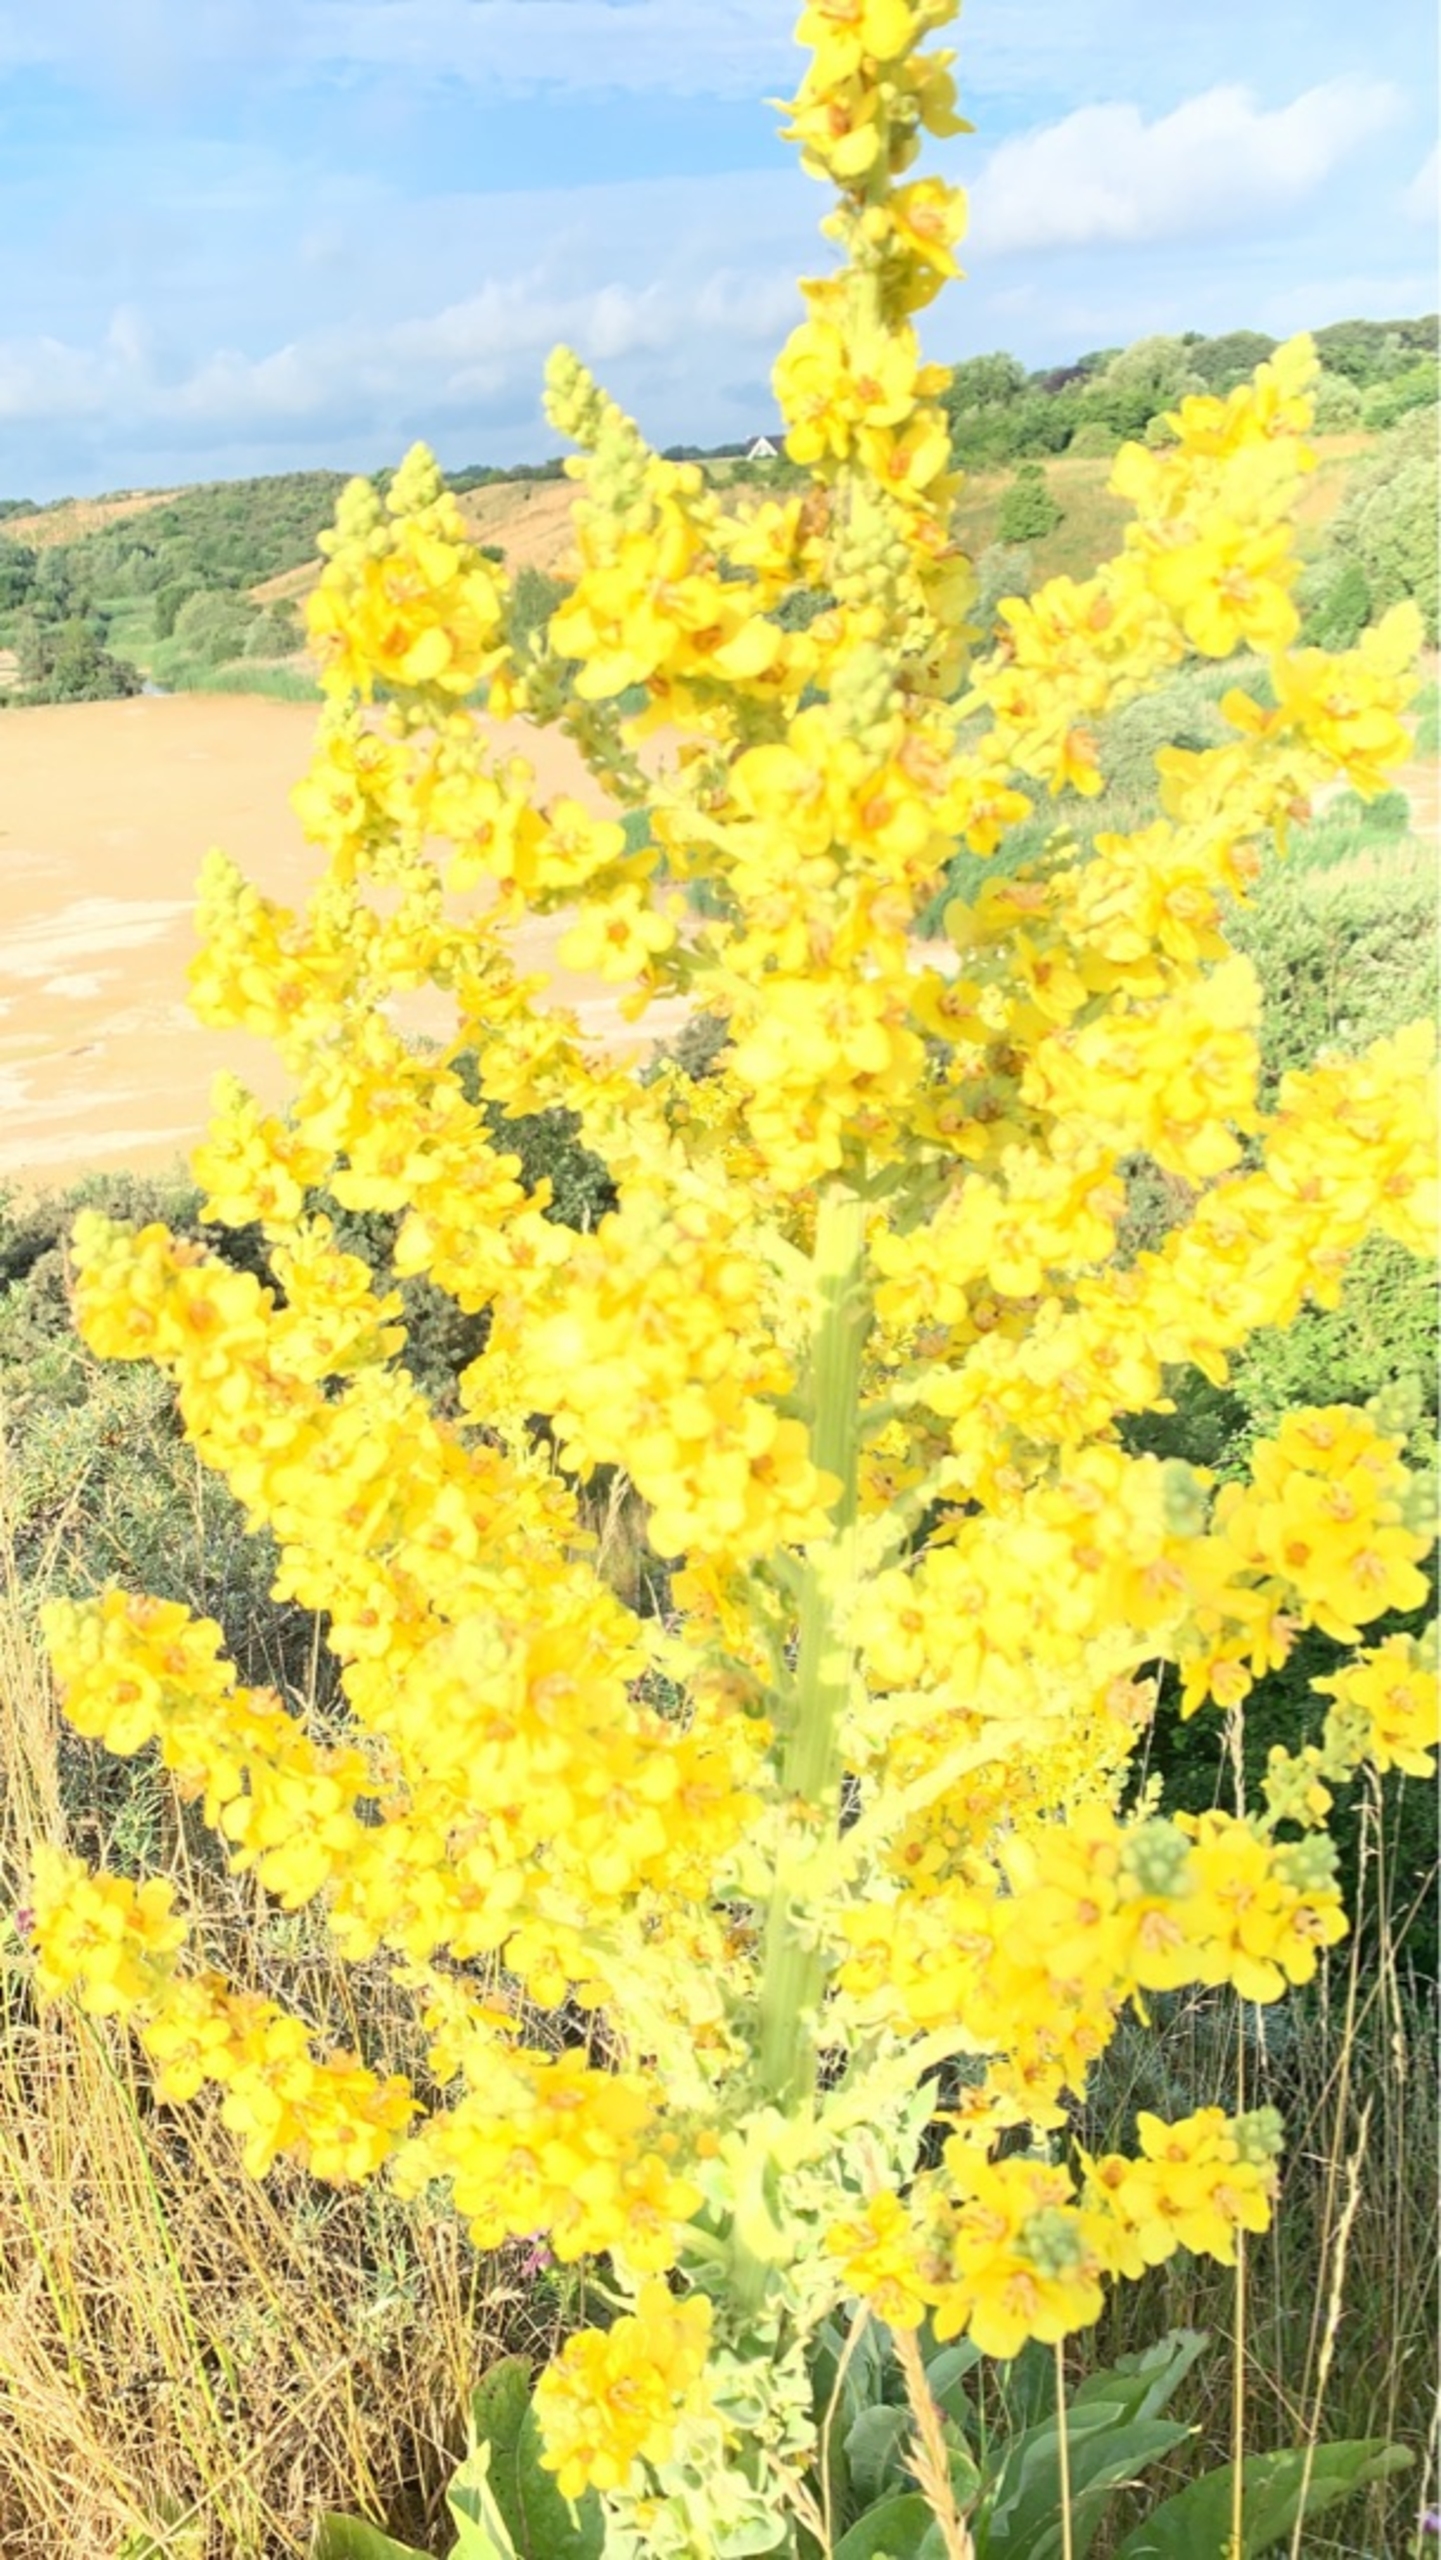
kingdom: Plantae
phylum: Tracheophyta
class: Magnoliopsida
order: Lamiales
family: Scrophulariaceae
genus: Verbascum
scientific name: Verbascum speciosum
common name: Kandelaber-kongelys
